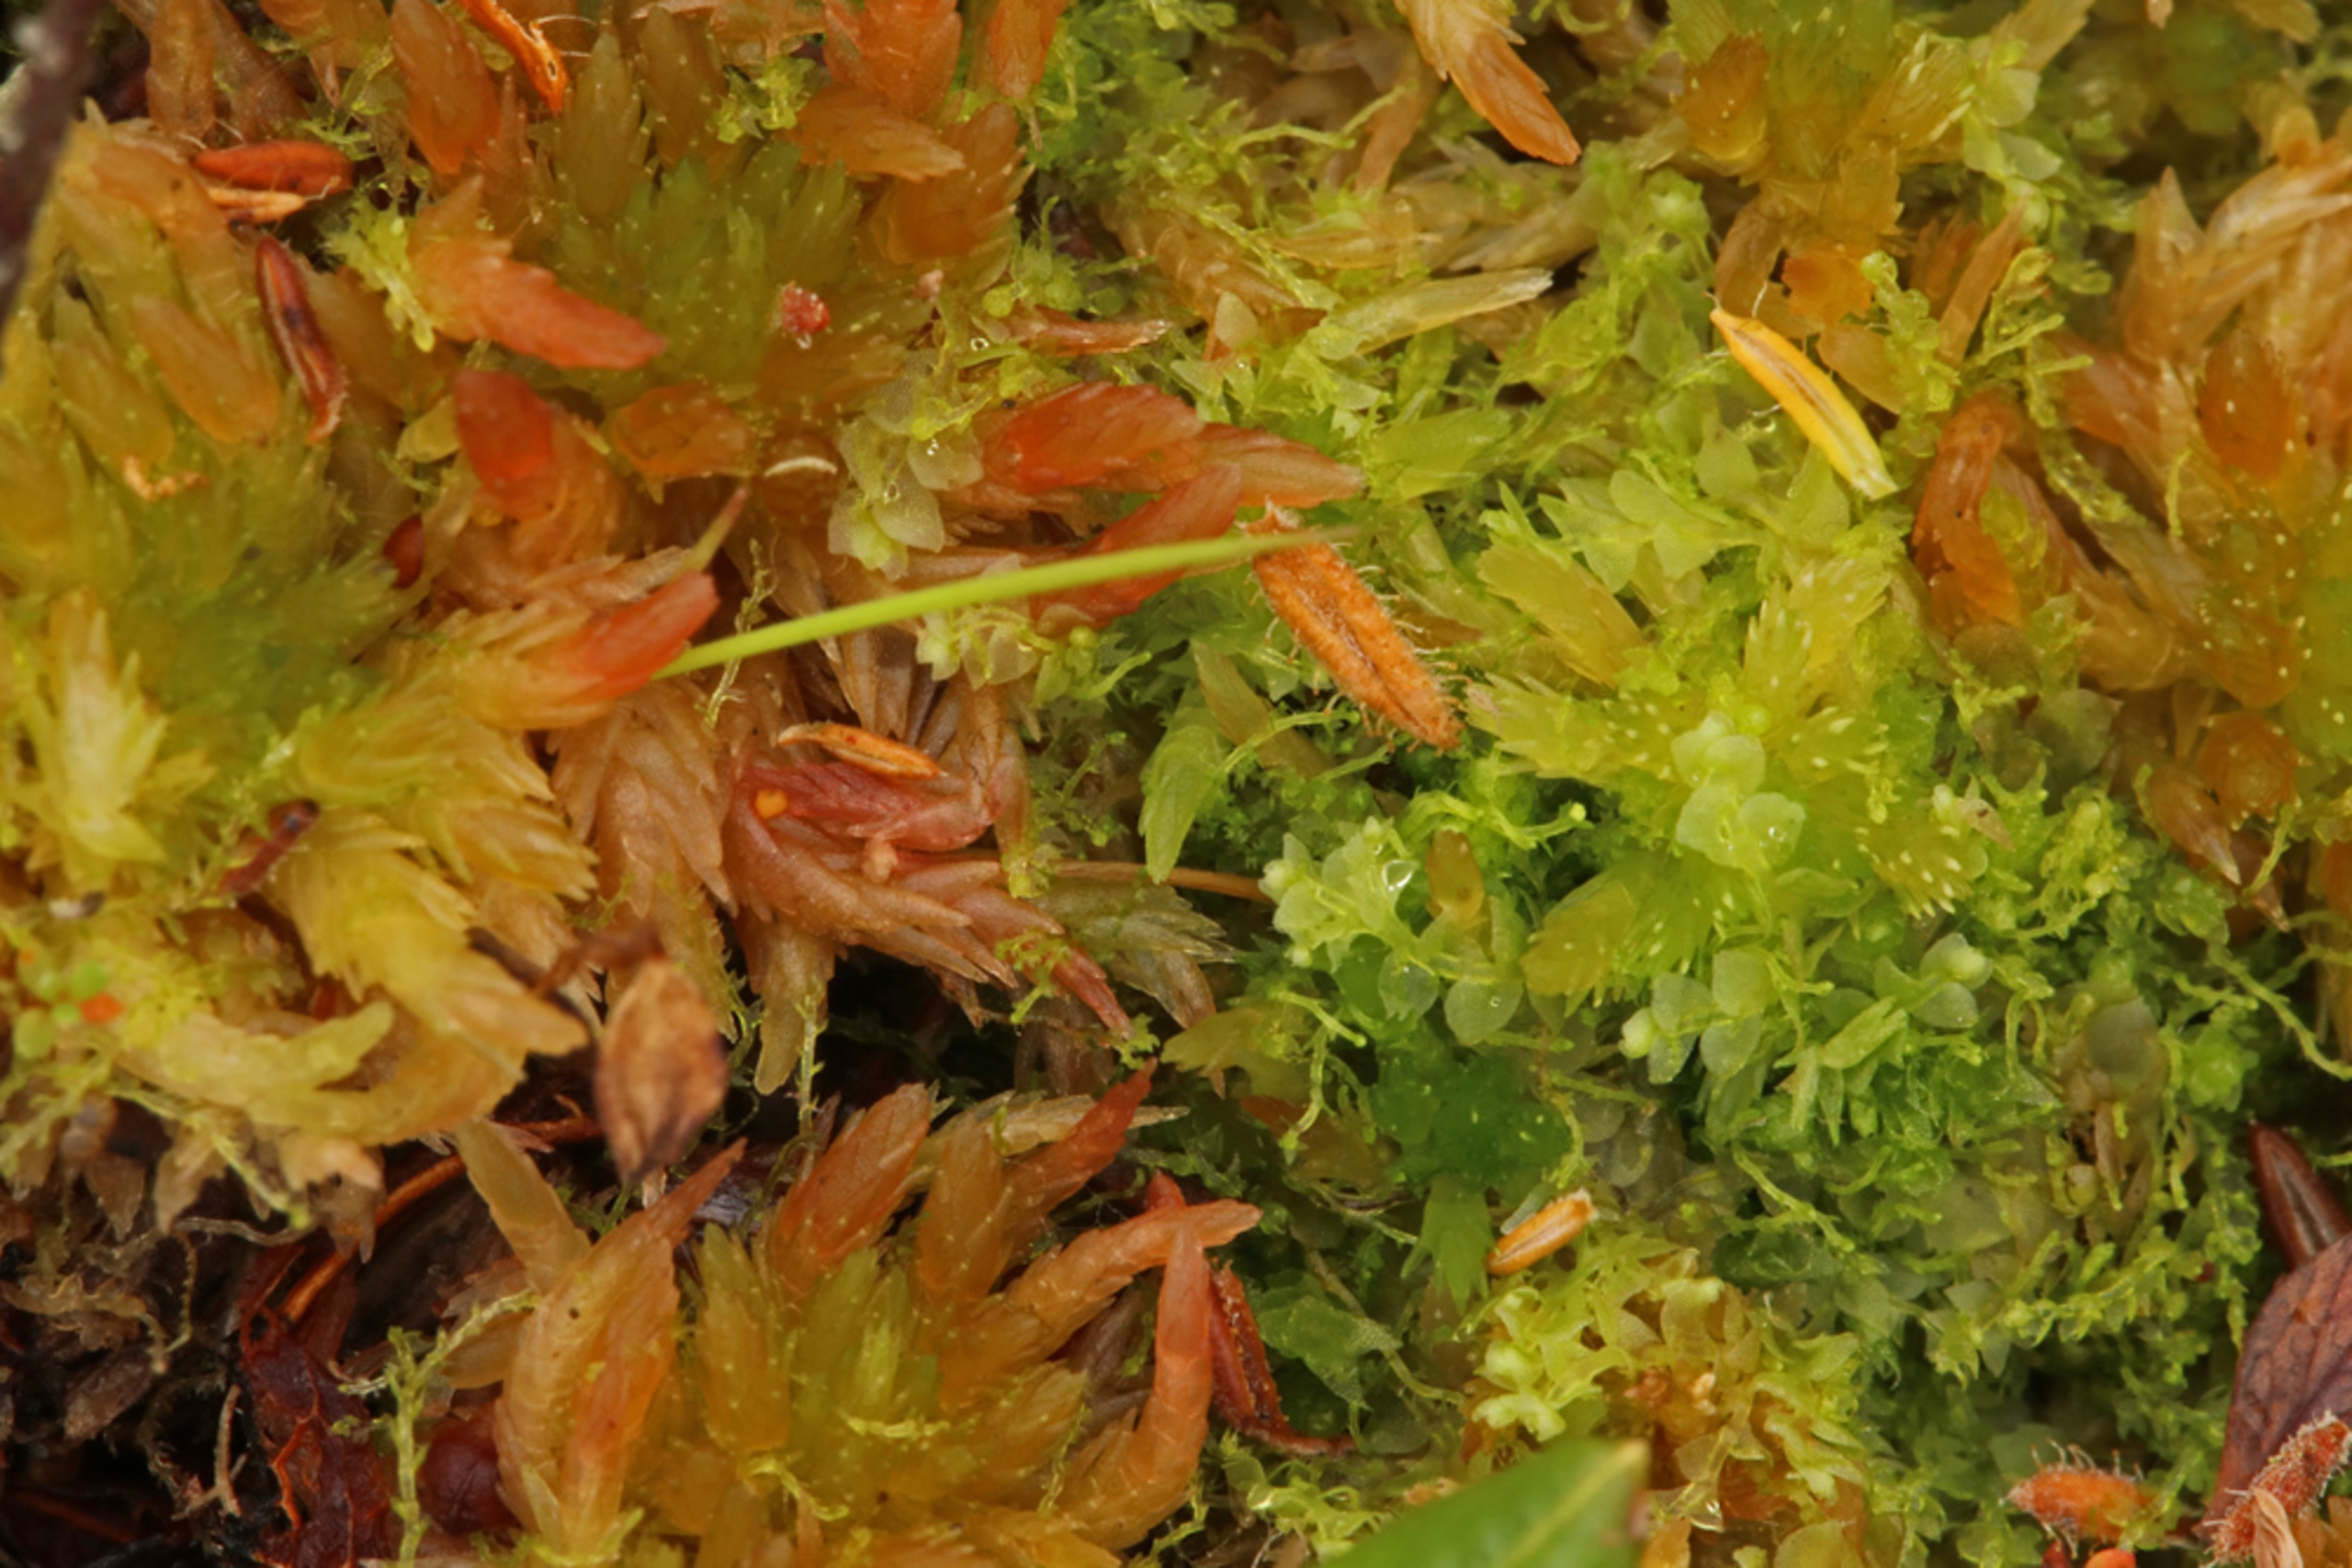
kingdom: Plantae
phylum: Marchantiophyta
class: Jungermanniopsida
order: Jungermanniales
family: Calypogeiaceae
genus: Calypogeia
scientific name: Calypogeia fissa
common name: Tvespidset sækmos
